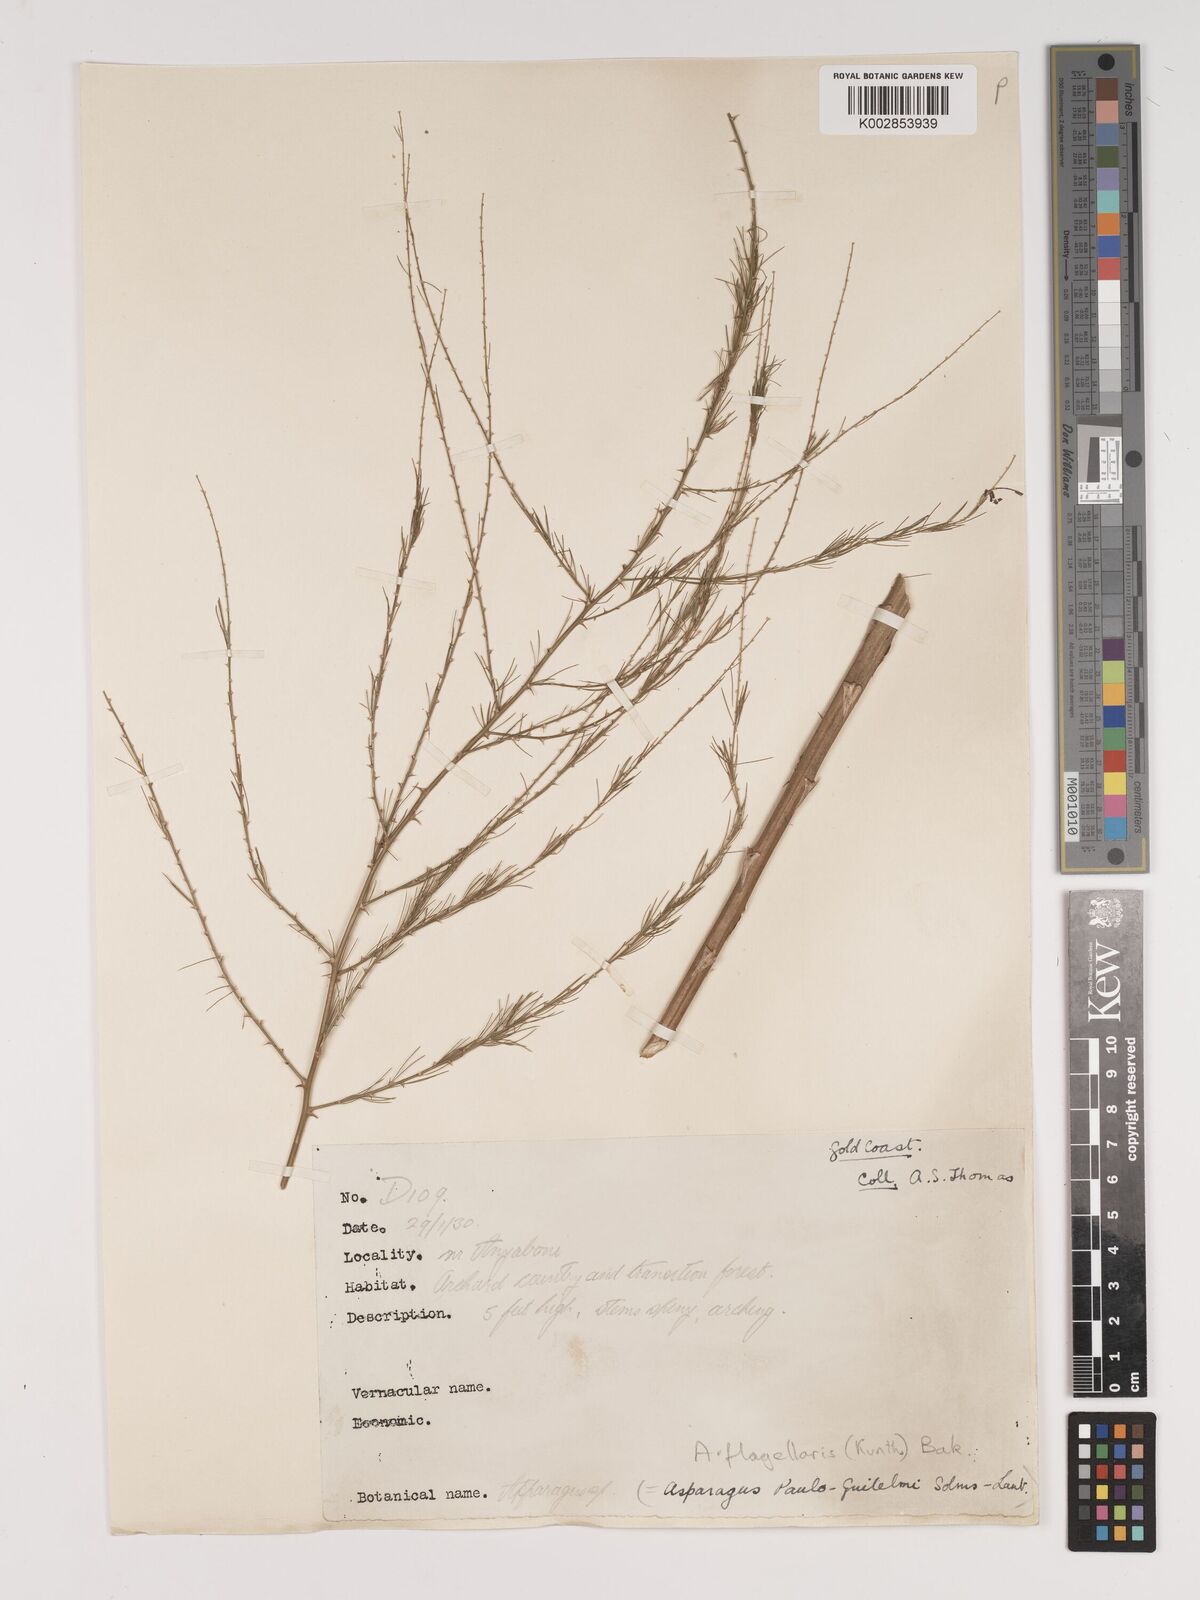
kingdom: Plantae
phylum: Tracheophyta
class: Liliopsida
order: Asparagales
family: Asparagaceae
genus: Asparagus
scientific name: Asparagus flagellaris
